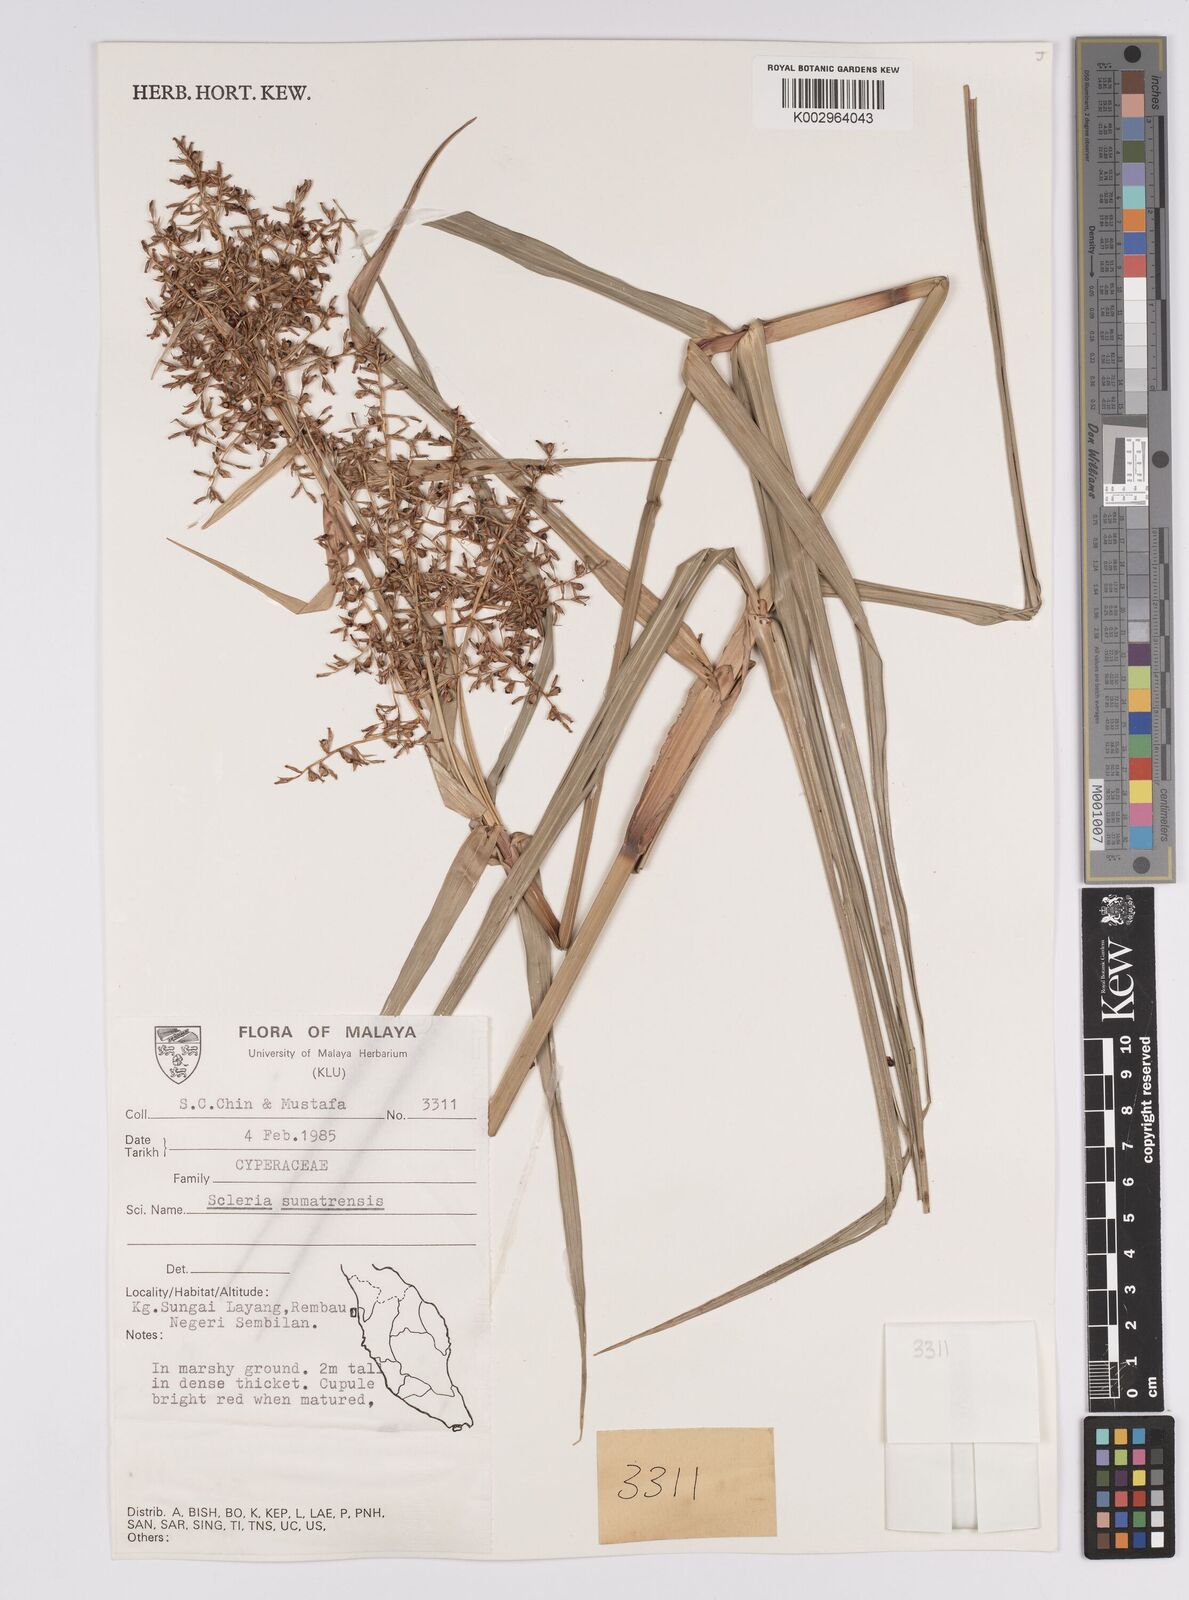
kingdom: Plantae
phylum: Tracheophyta
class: Liliopsida
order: Poales
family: Cyperaceae
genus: Scleria
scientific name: Scleria sumatrensis
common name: Sumatran scleria
